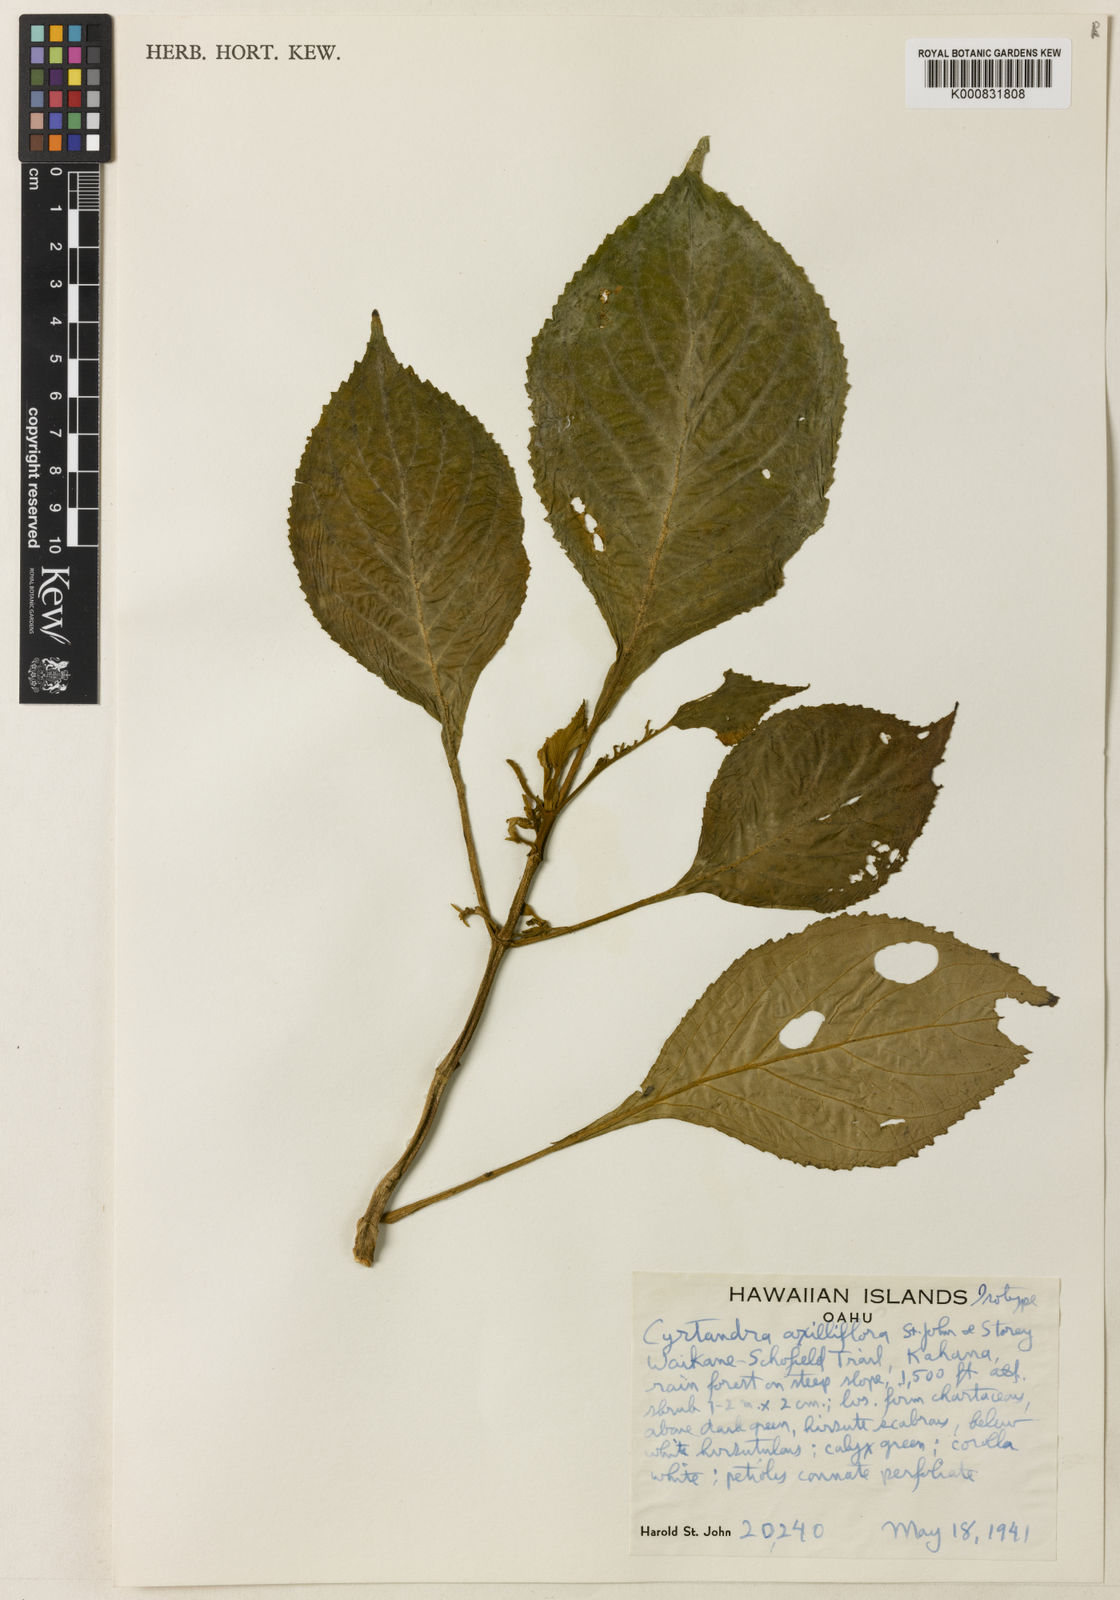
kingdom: Plantae
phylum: Tracheophyta
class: Magnoliopsida
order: Lamiales
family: Gesneriaceae
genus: Cyrtandra
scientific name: Cyrtandra axilliflora
